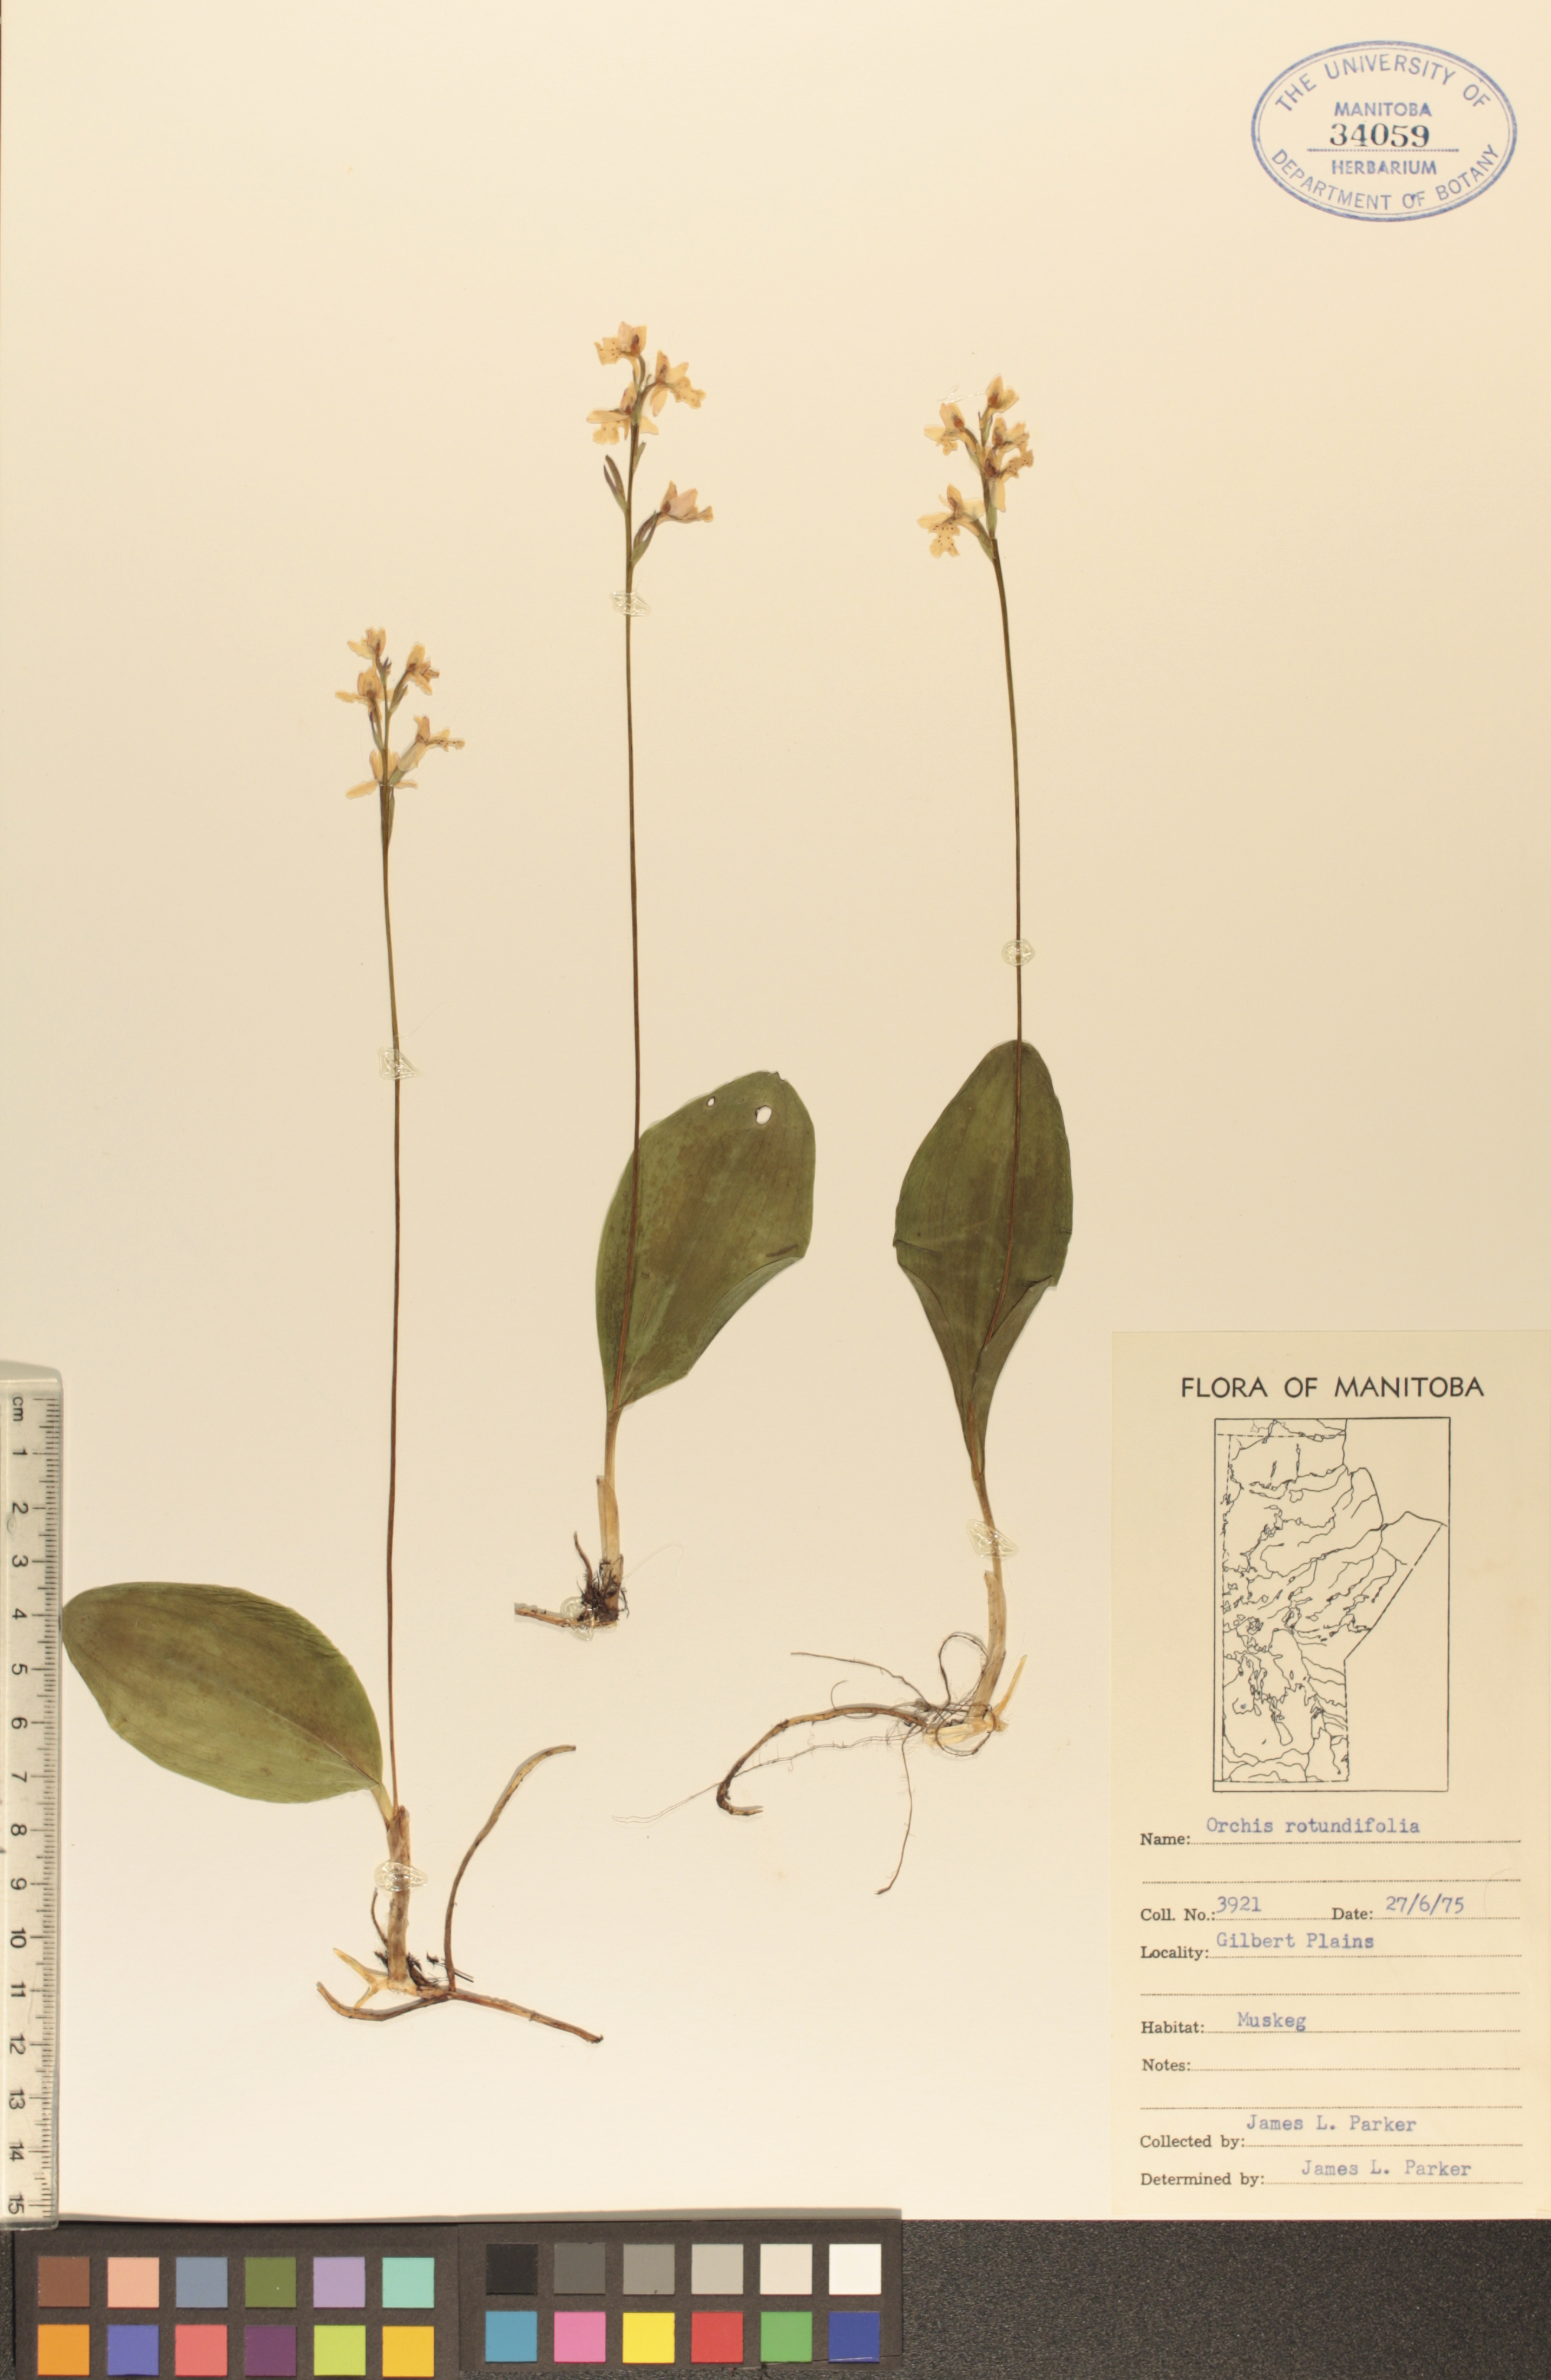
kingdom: Plantae
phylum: Tracheophyta
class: Liliopsida
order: Asparagales
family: Orchidaceae
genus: Galearis
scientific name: Galearis rotundifolia
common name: One-leaved orchis
